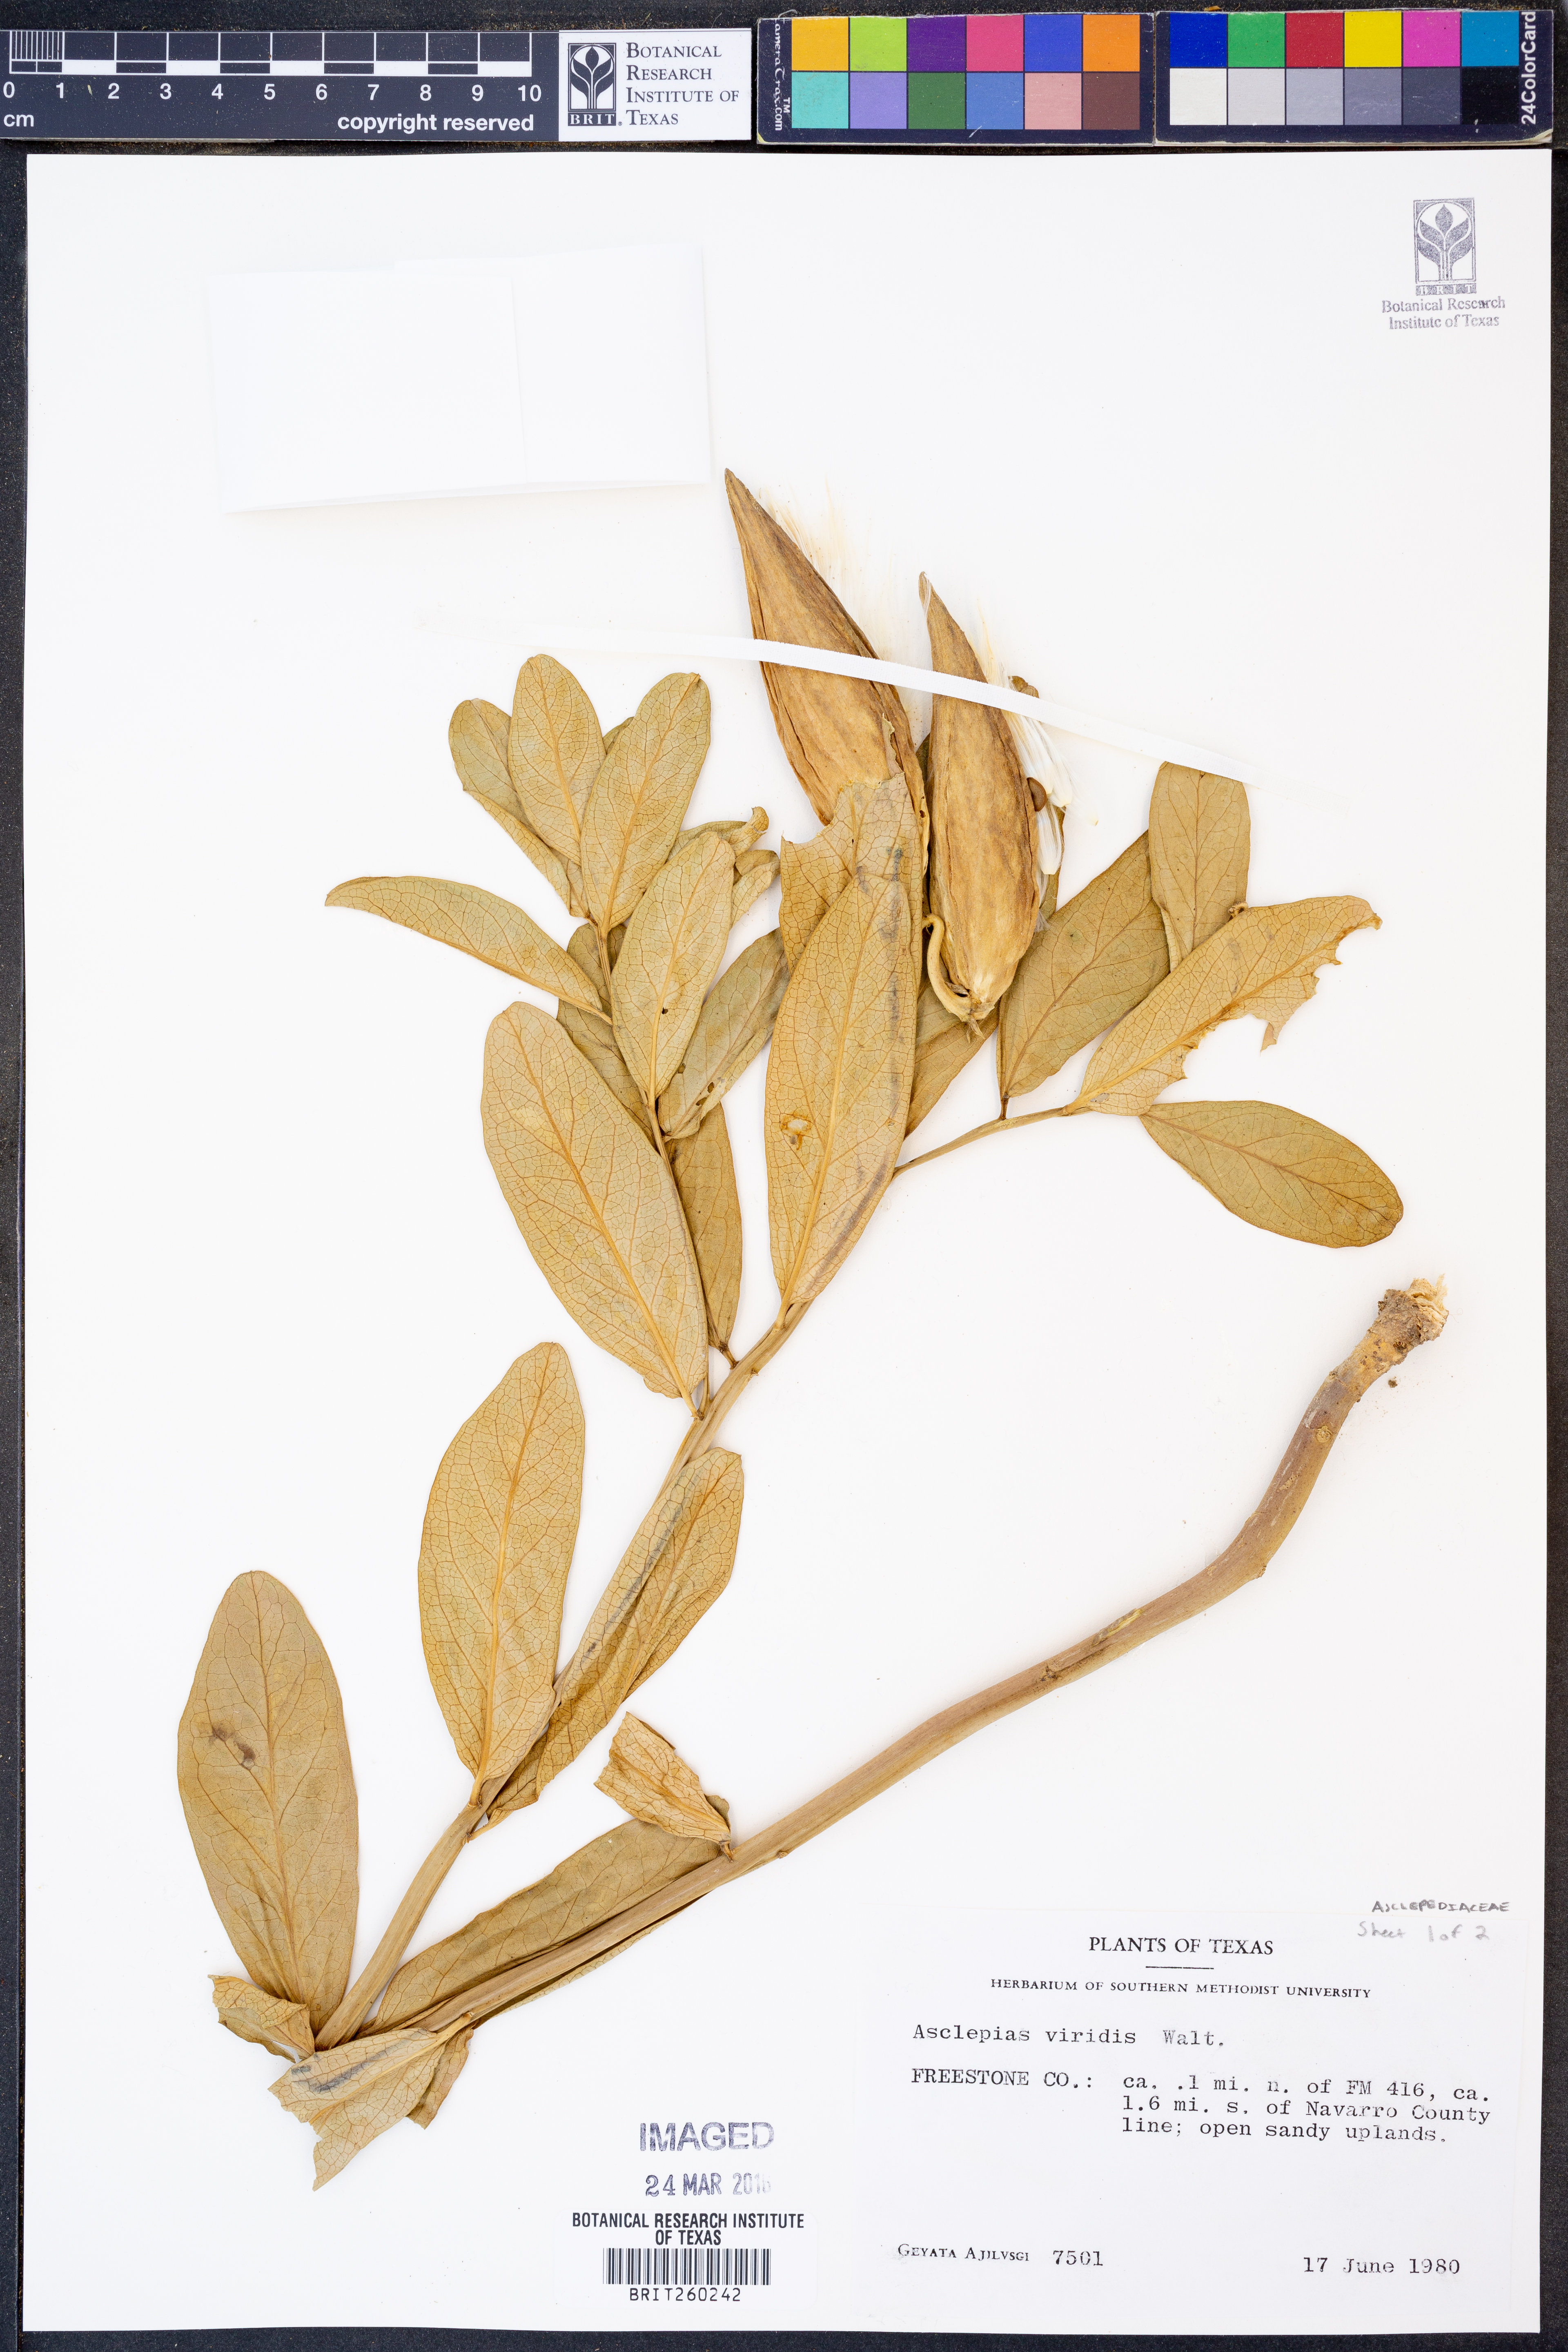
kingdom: Plantae
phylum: Tracheophyta
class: Magnoliopsida
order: Gentianales
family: Apocynaceae
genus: Asclepias
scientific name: Asclepias viridis
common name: Antelope-horns
